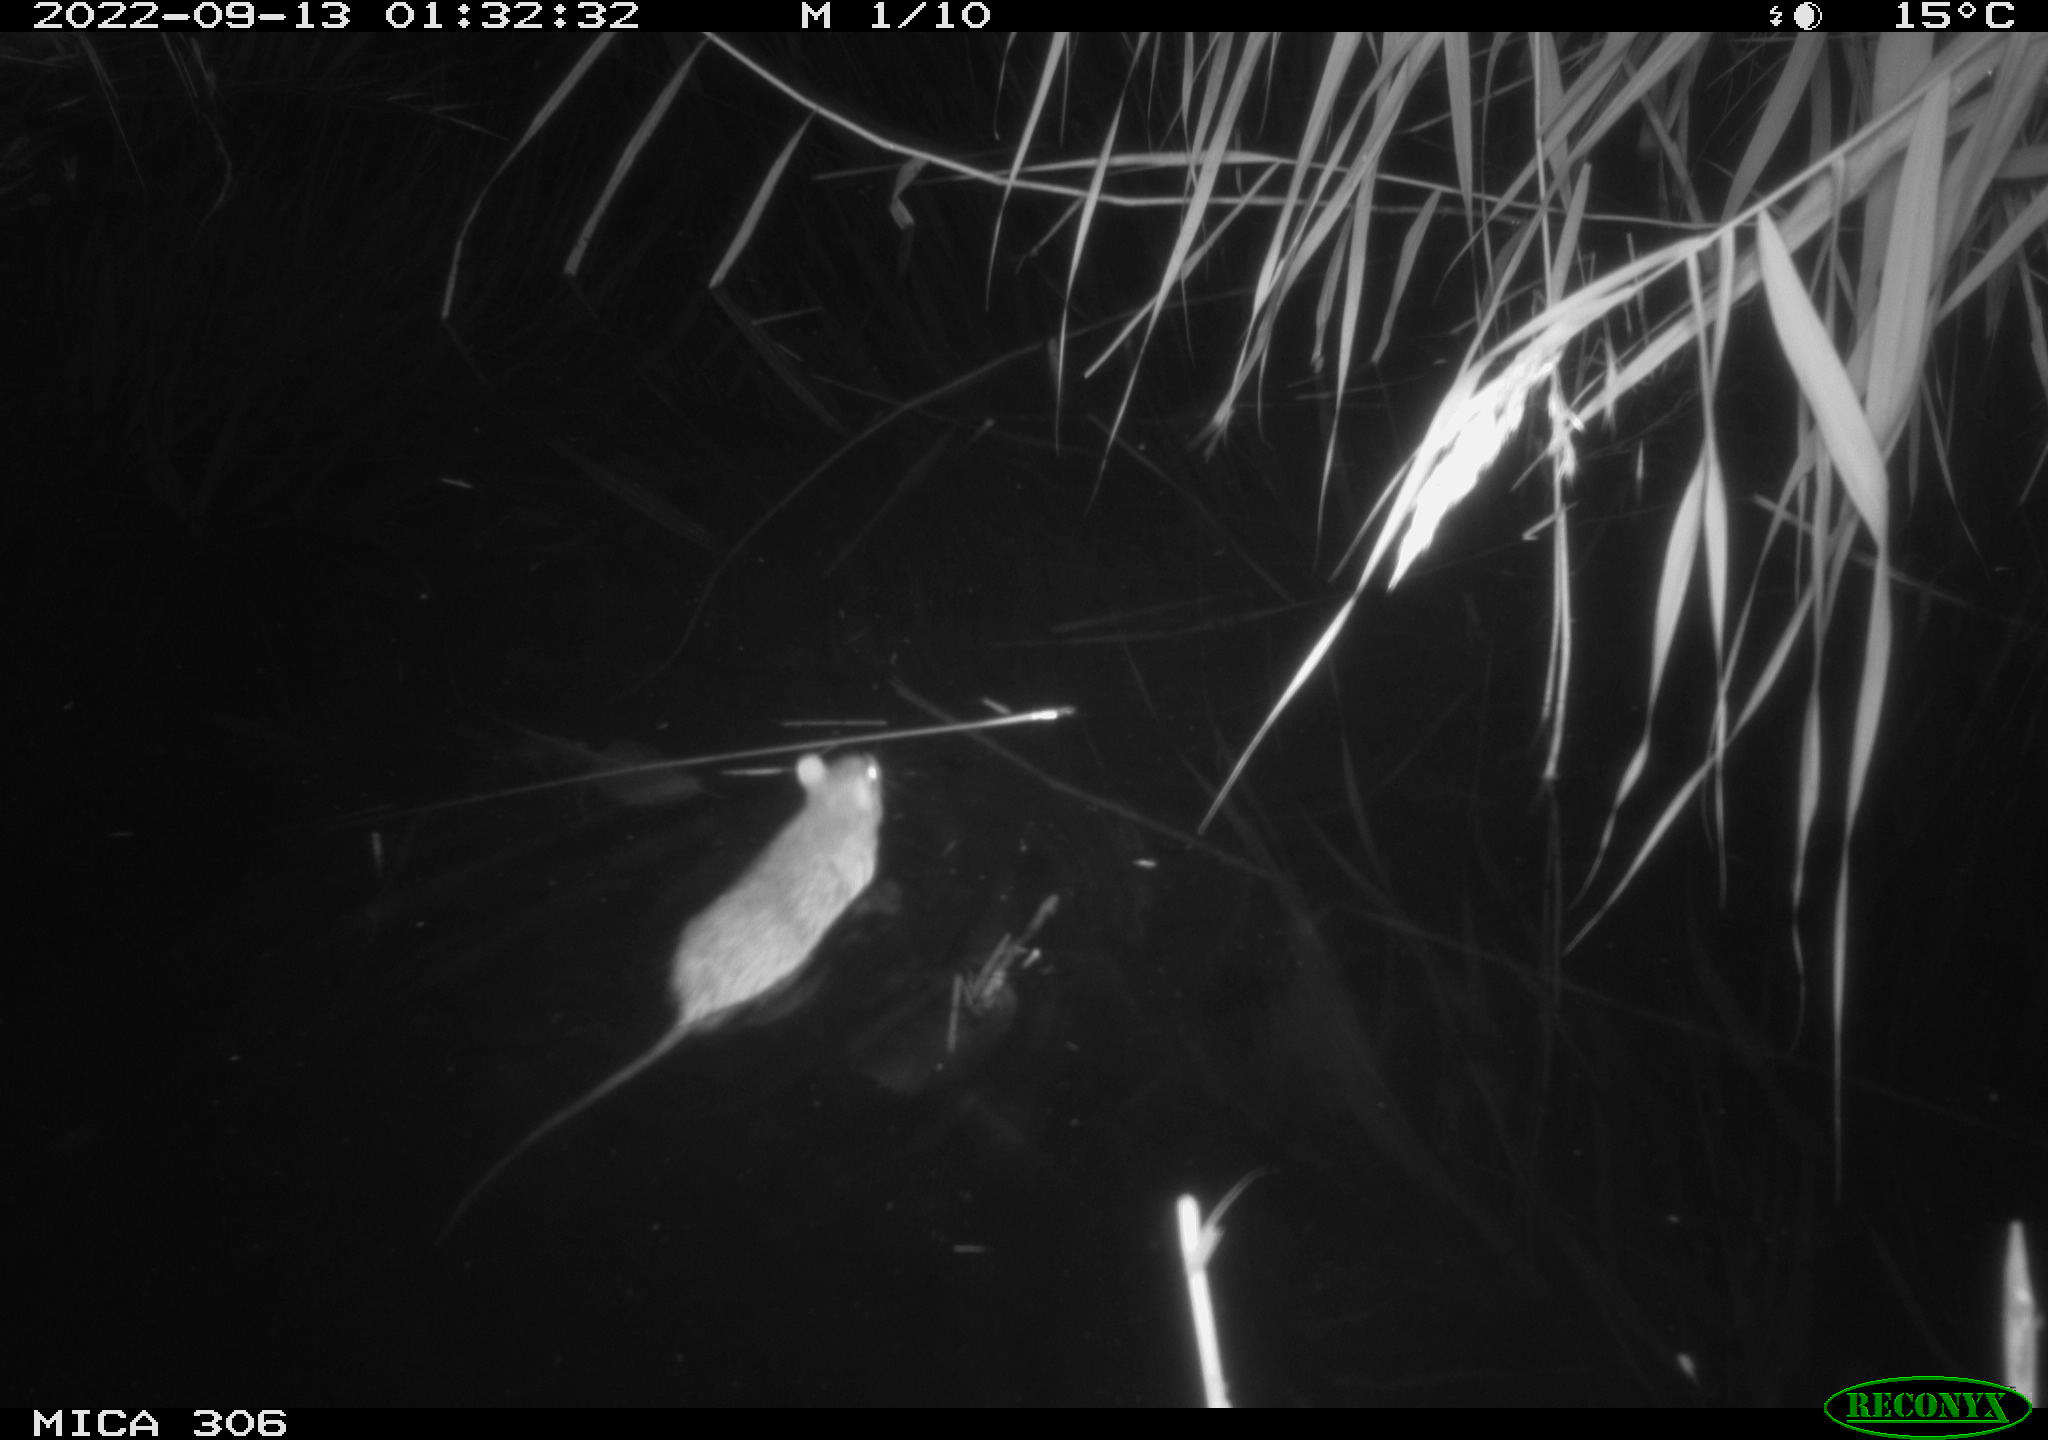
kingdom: Animalia
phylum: Chordata
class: Mammalia
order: Rodentia
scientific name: Rodentia
